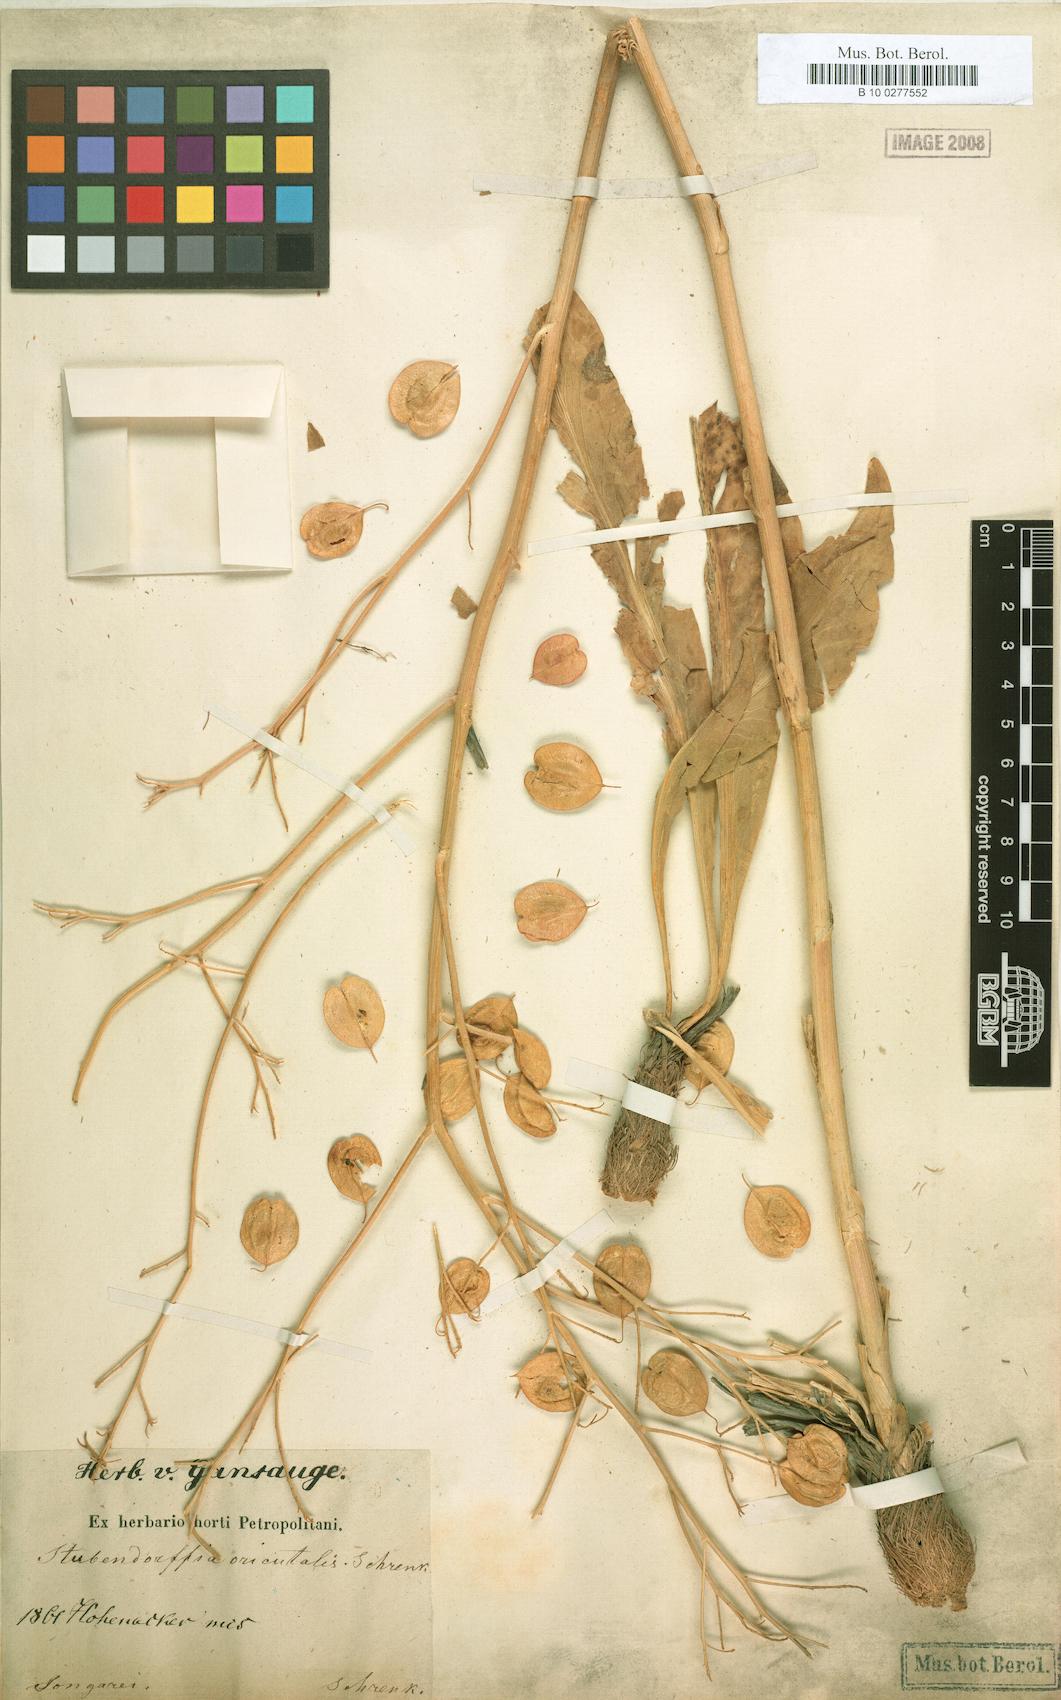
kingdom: Plantae
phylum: Tracheophyta
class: Magnoliopsida
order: Brassicales
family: Brassicaceae
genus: Lepidium
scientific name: Lepidium orientale
